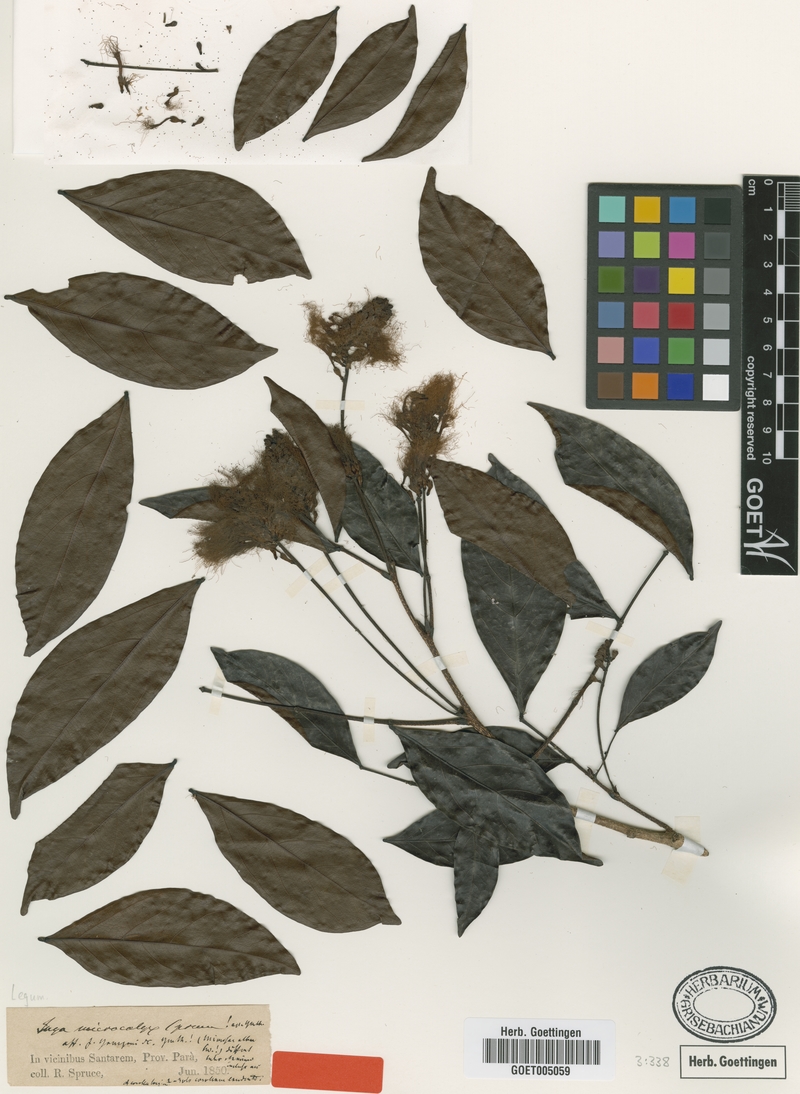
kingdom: Plantae
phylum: Tracheophyta
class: Magnoliopsida
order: Fabales
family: Fabaceae
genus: Inga
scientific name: Inga microcalyx
